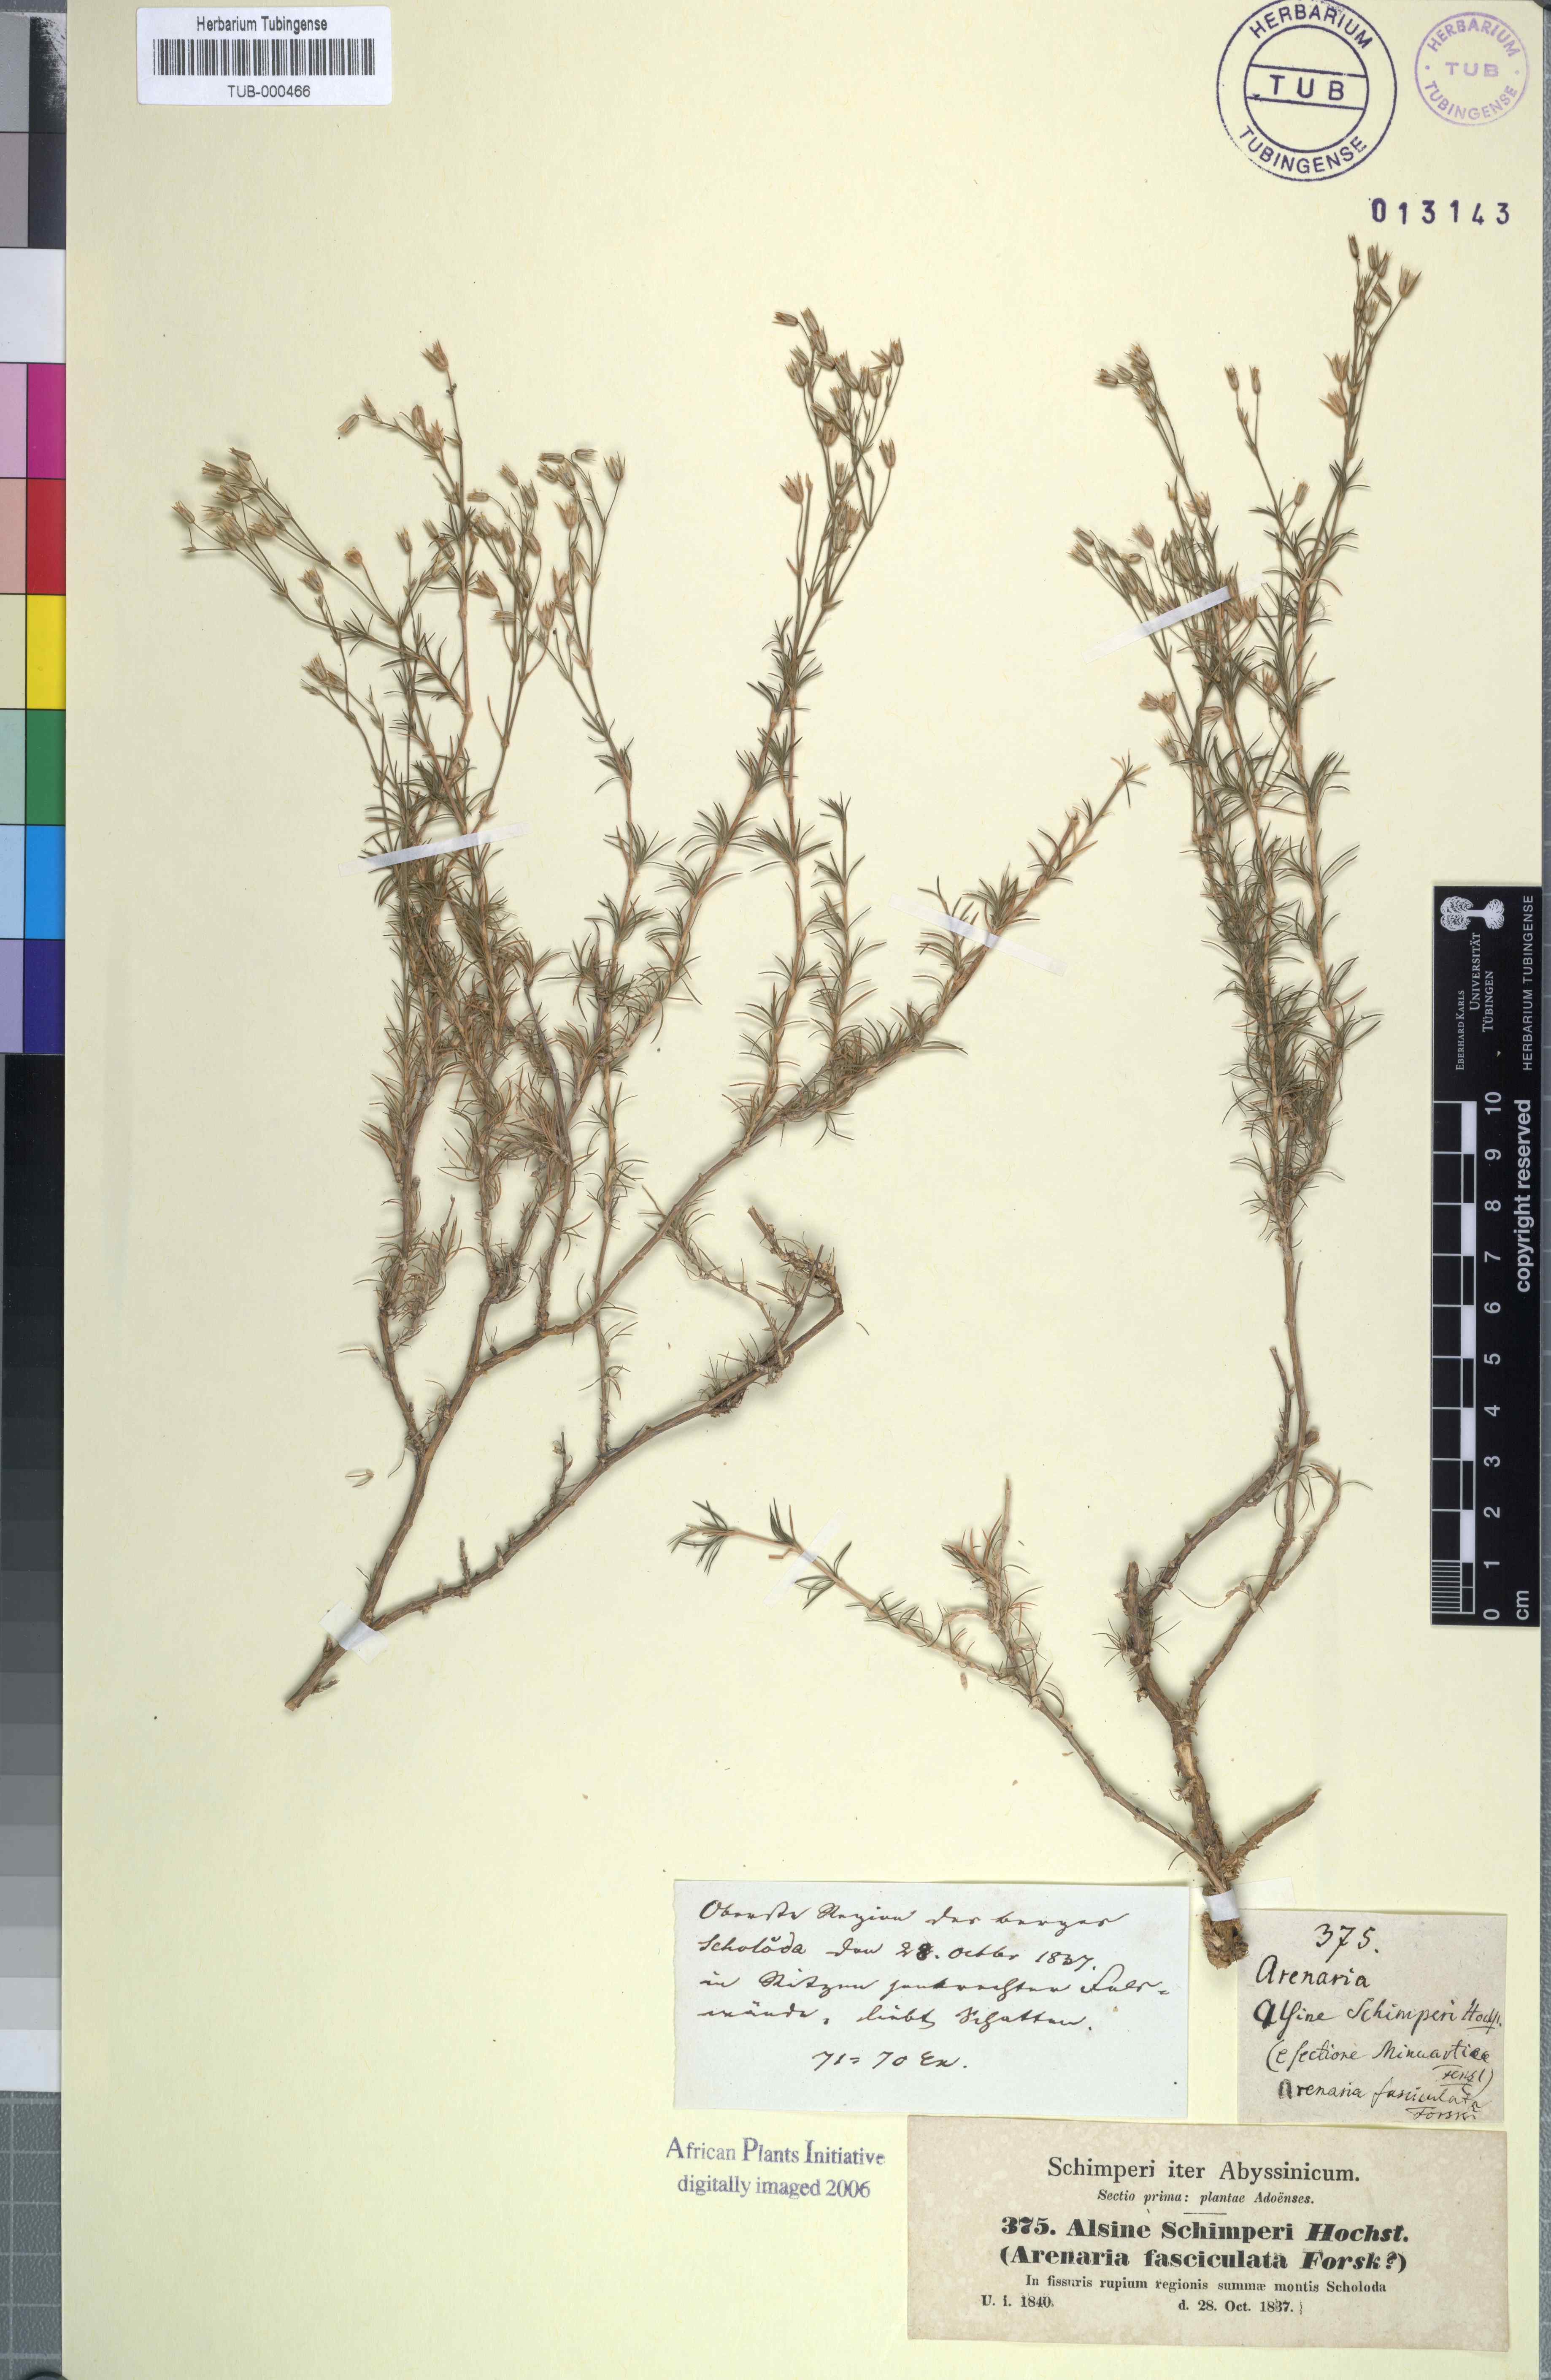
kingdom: Plantae
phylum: Tracheophyta
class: Magnoliopsida
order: Caryophyllales
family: Caryophyllaceae
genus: Minuartia
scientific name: Minuartia filifolia
